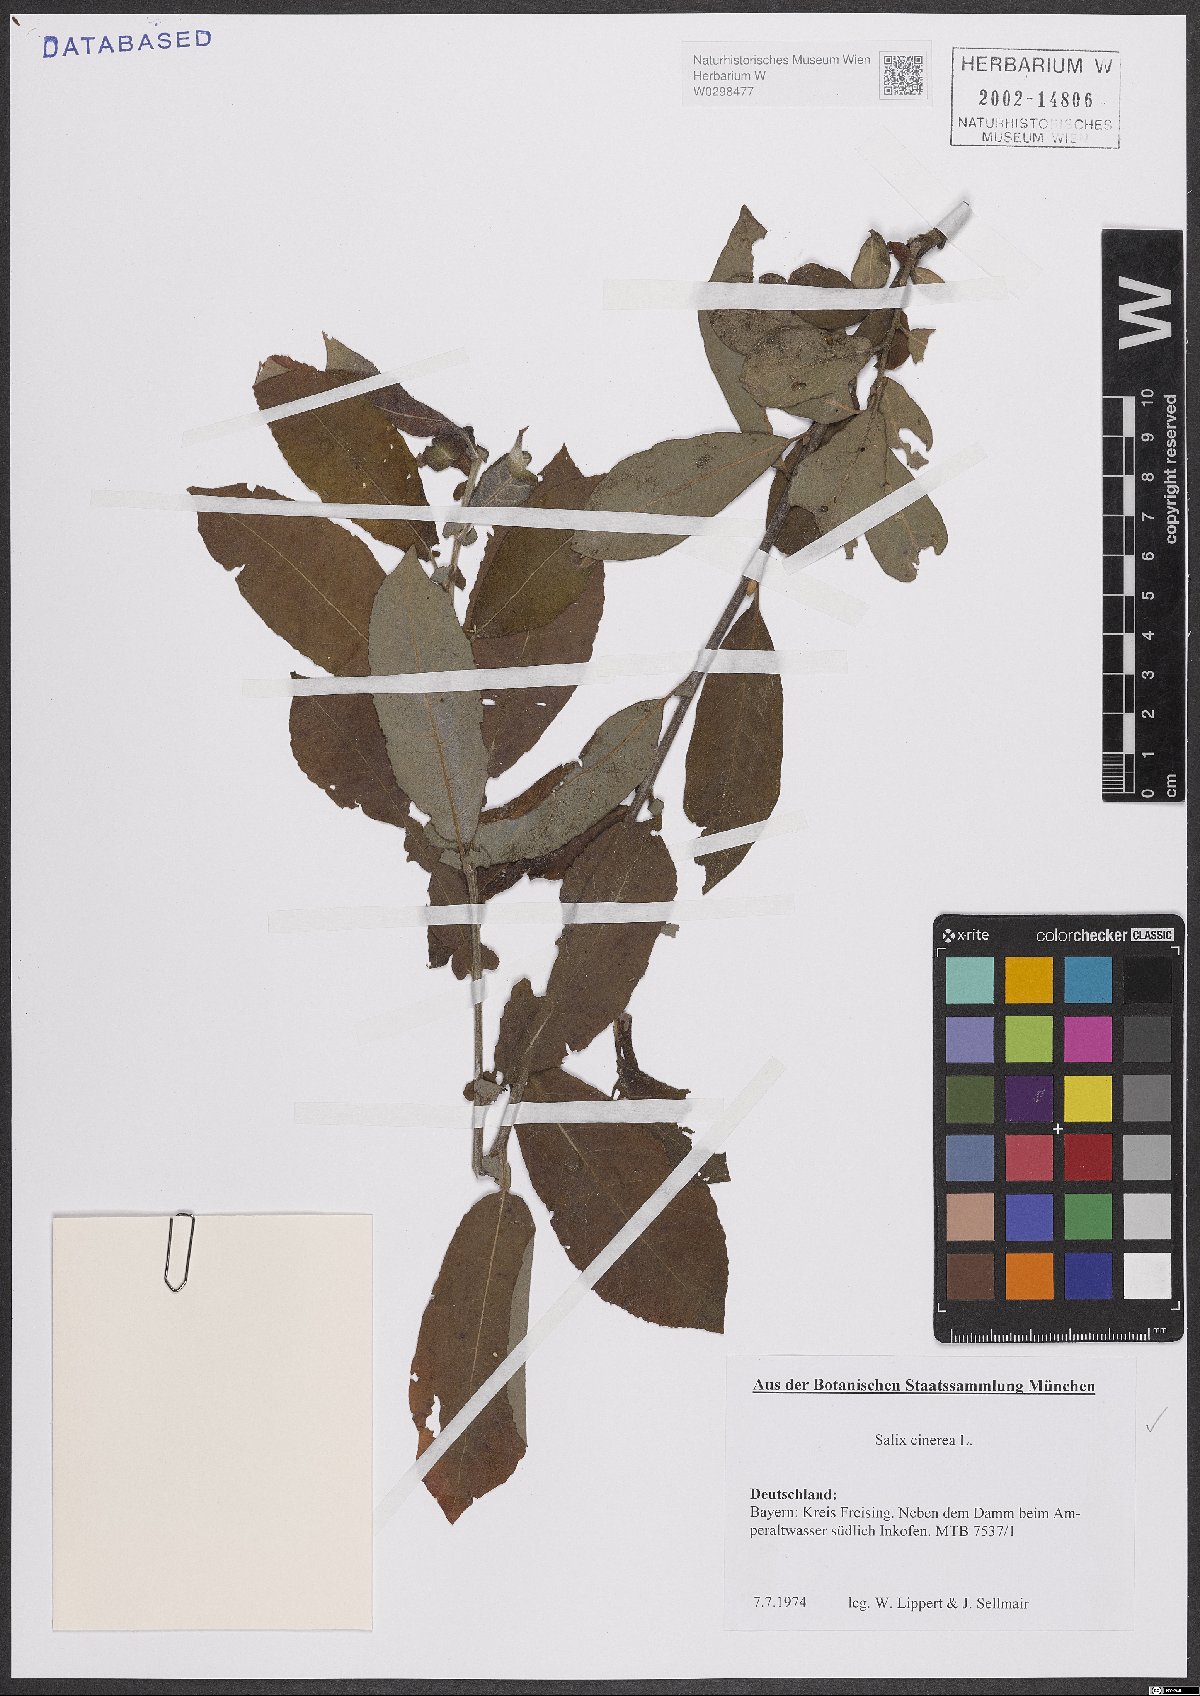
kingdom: Plantae
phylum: Tracheophyta
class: Magnoliopsida
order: Malpighiales
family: Salicaceae
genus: Salix
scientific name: Salix cinerea
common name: Common sallow
